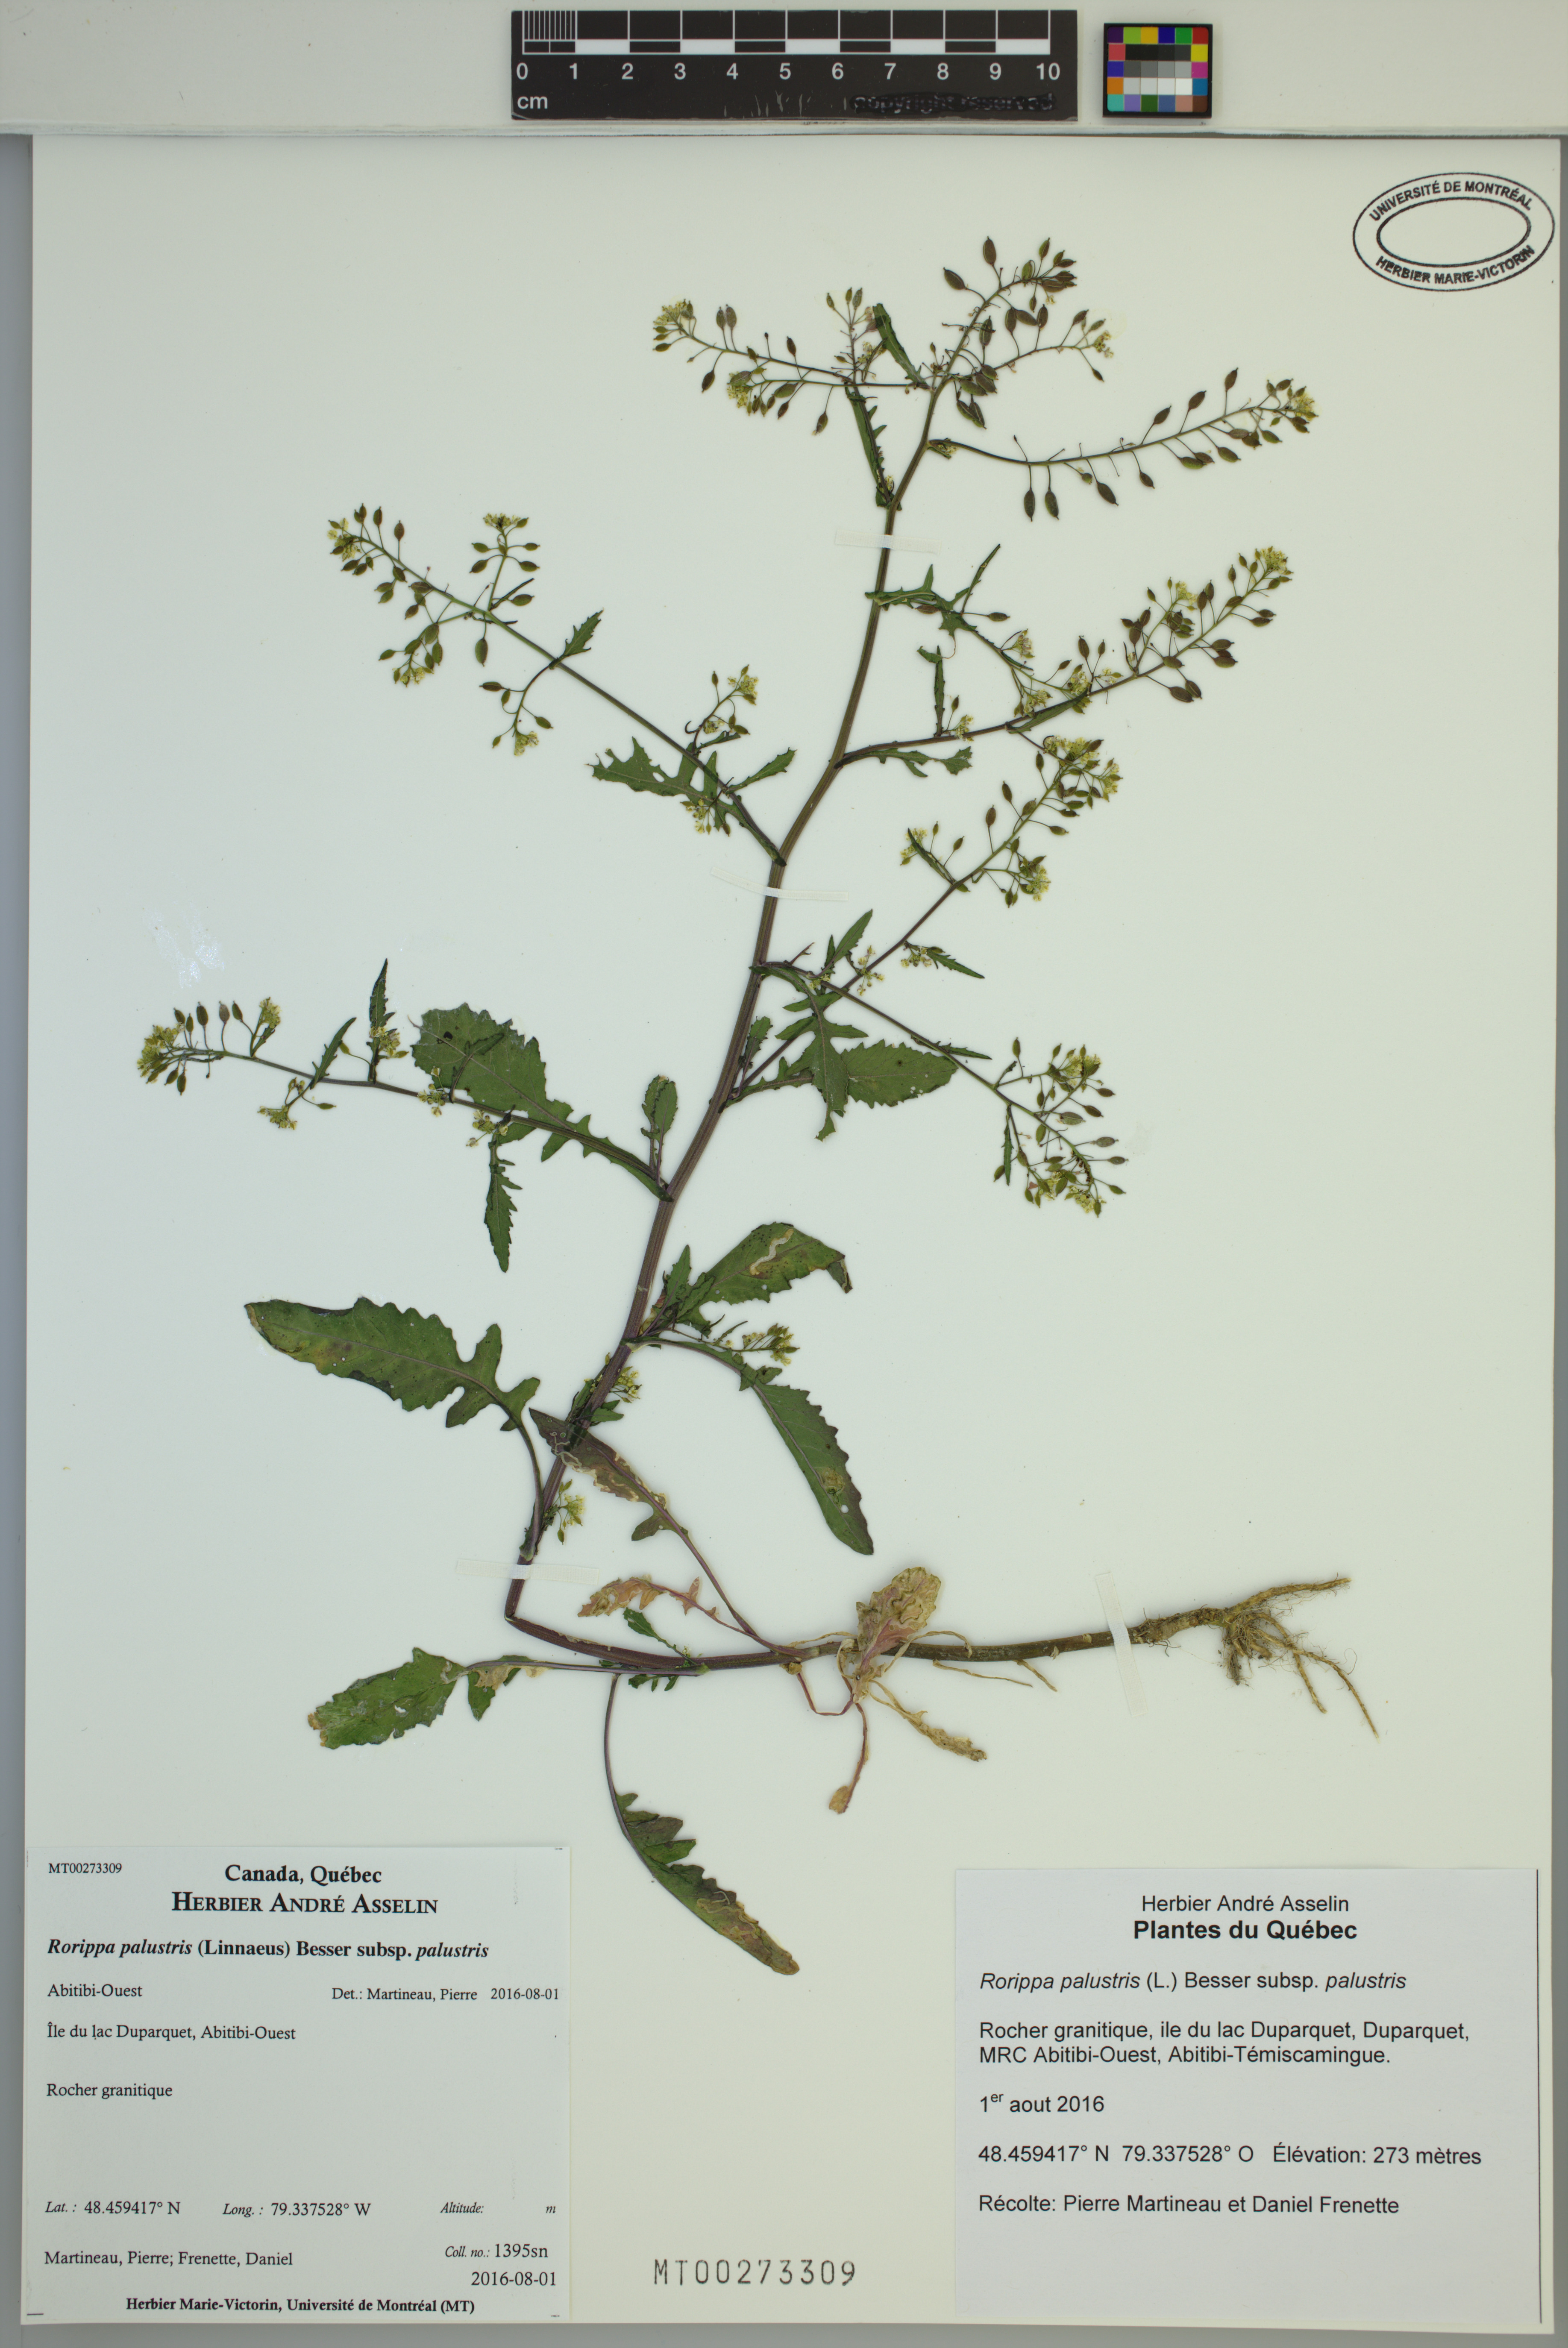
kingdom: Plantae
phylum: Tracheophyta
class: Magnoliopsida
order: Brassicales
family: Brassicaceae
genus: Rorippa
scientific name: Rorippa palustris
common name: Marsh yellow-cress
